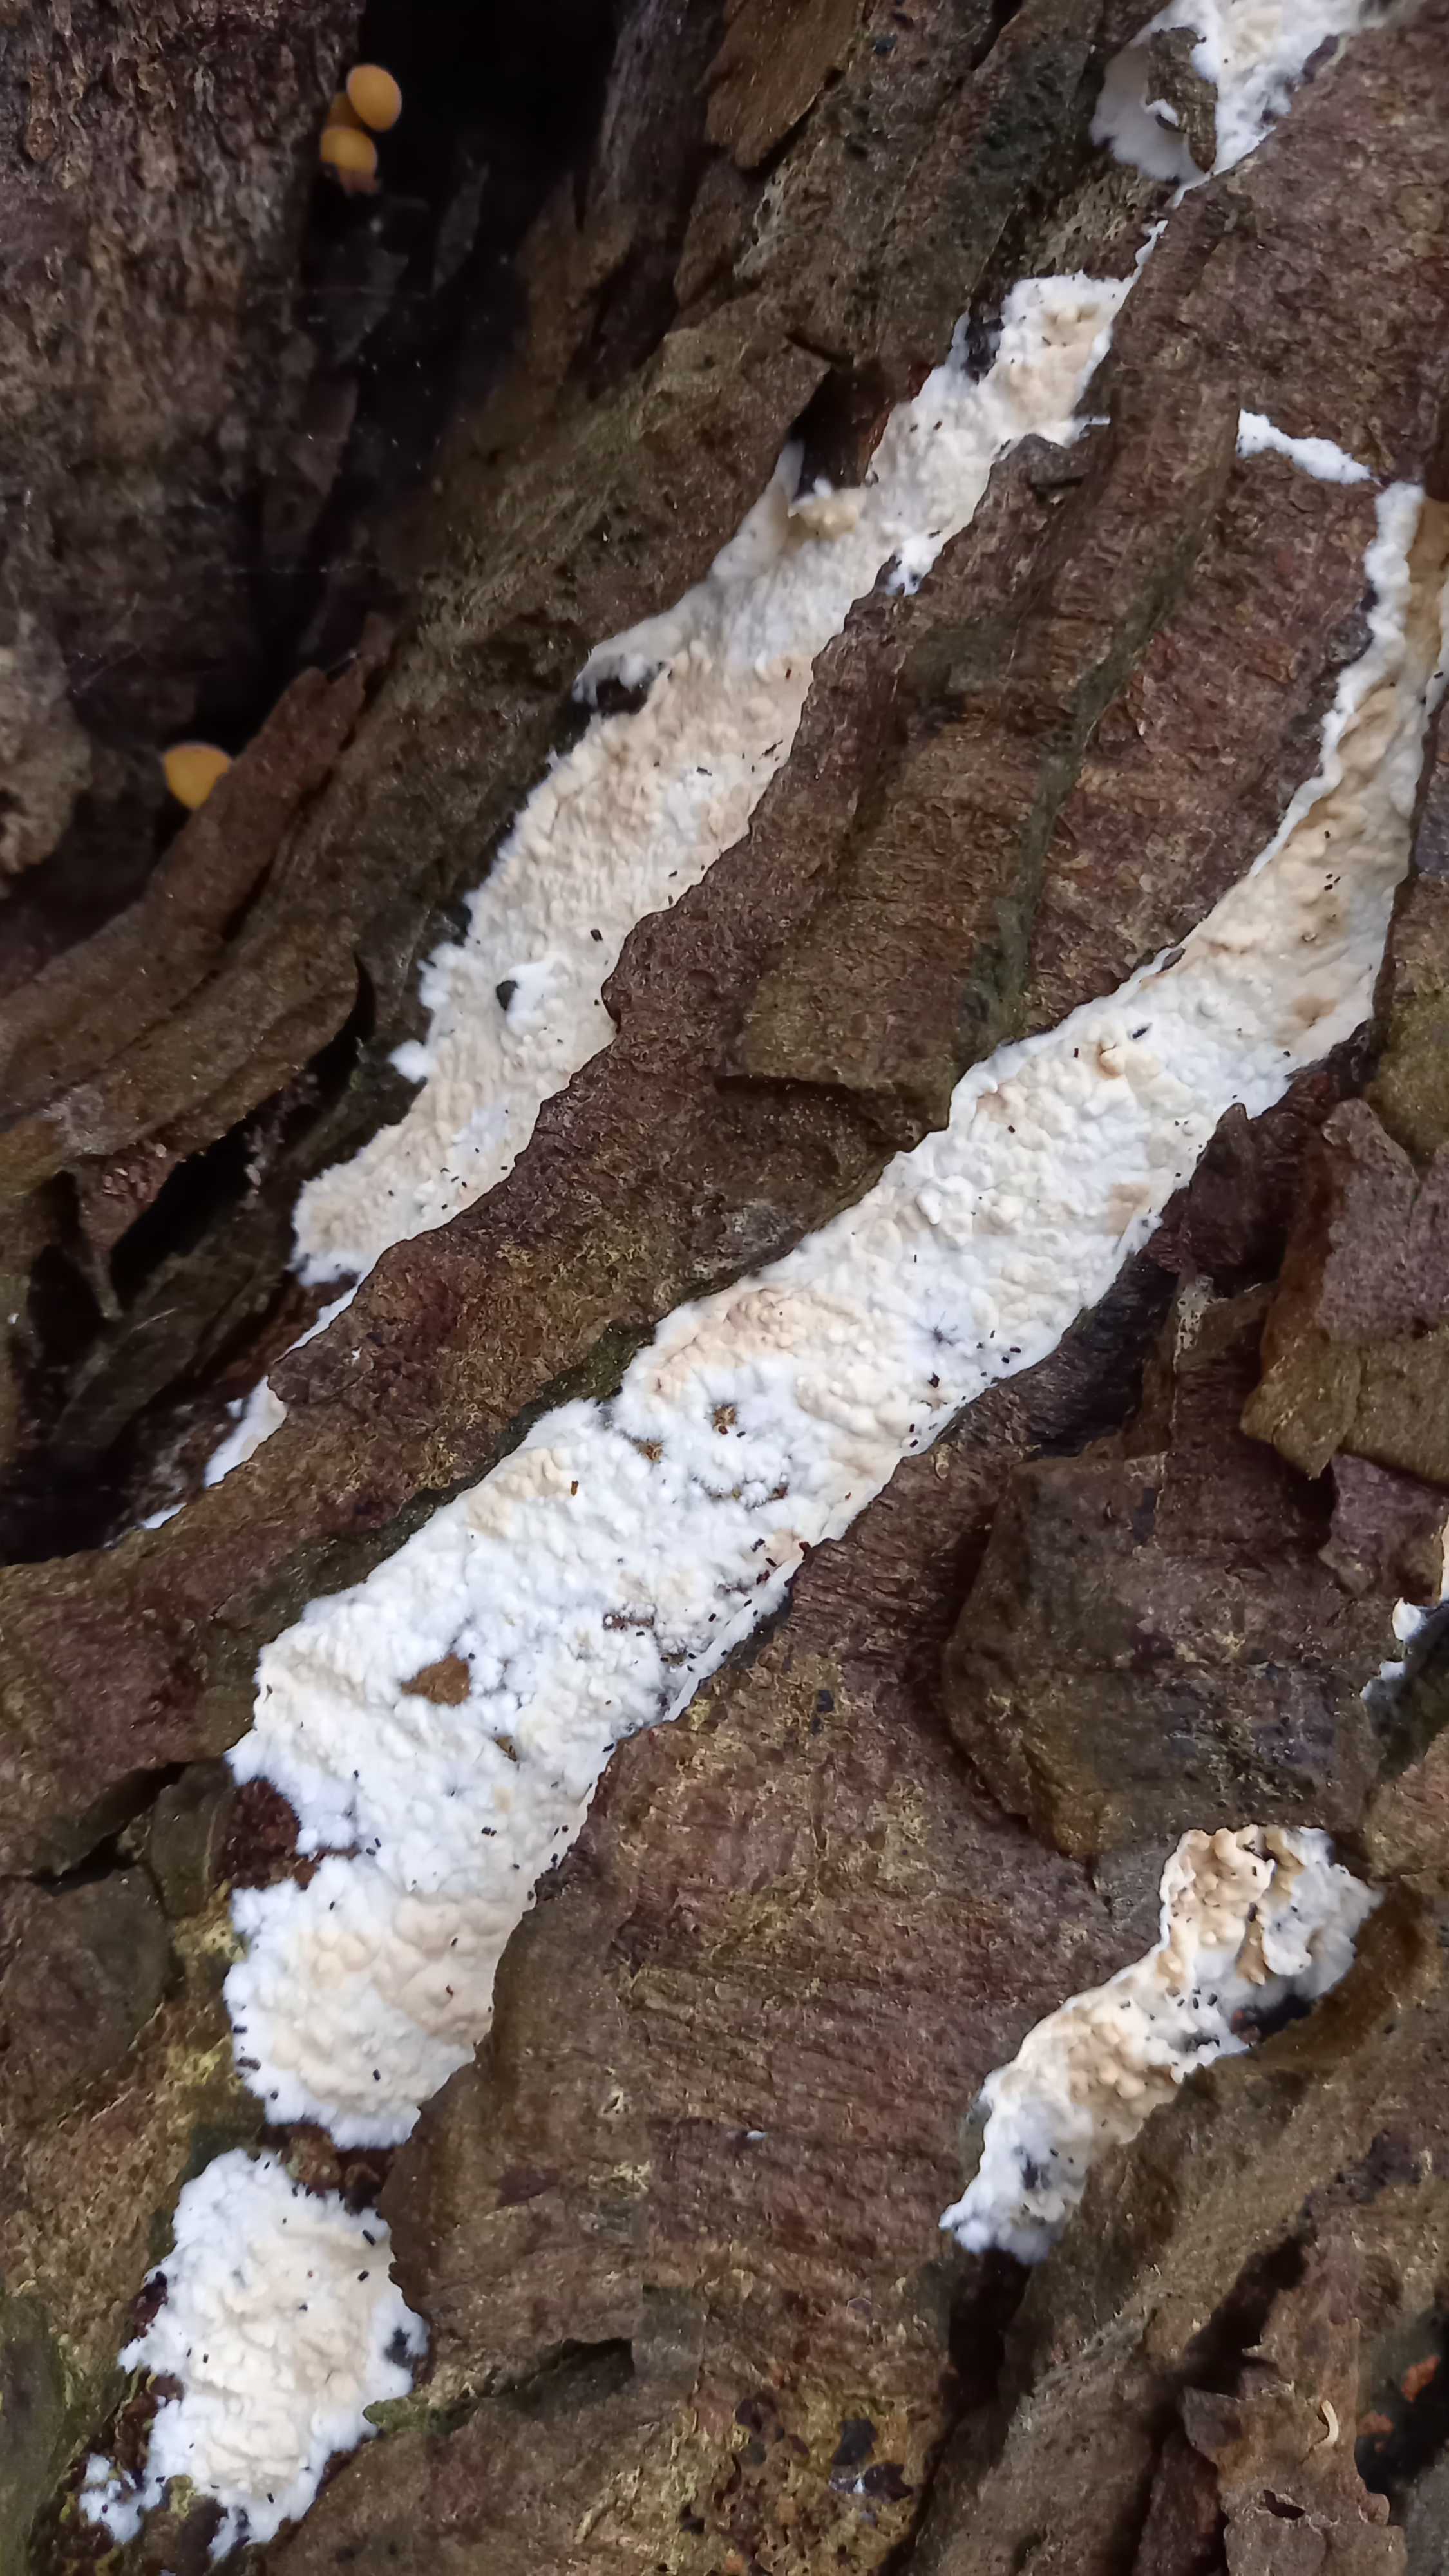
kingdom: Fungi
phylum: Basidiomycota
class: Agaricomycetes
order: Agaricales
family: Physalacriaceae
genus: Cylindrobasidium
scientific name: Cylindrobasidium evolvens
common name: sprækkehinde
